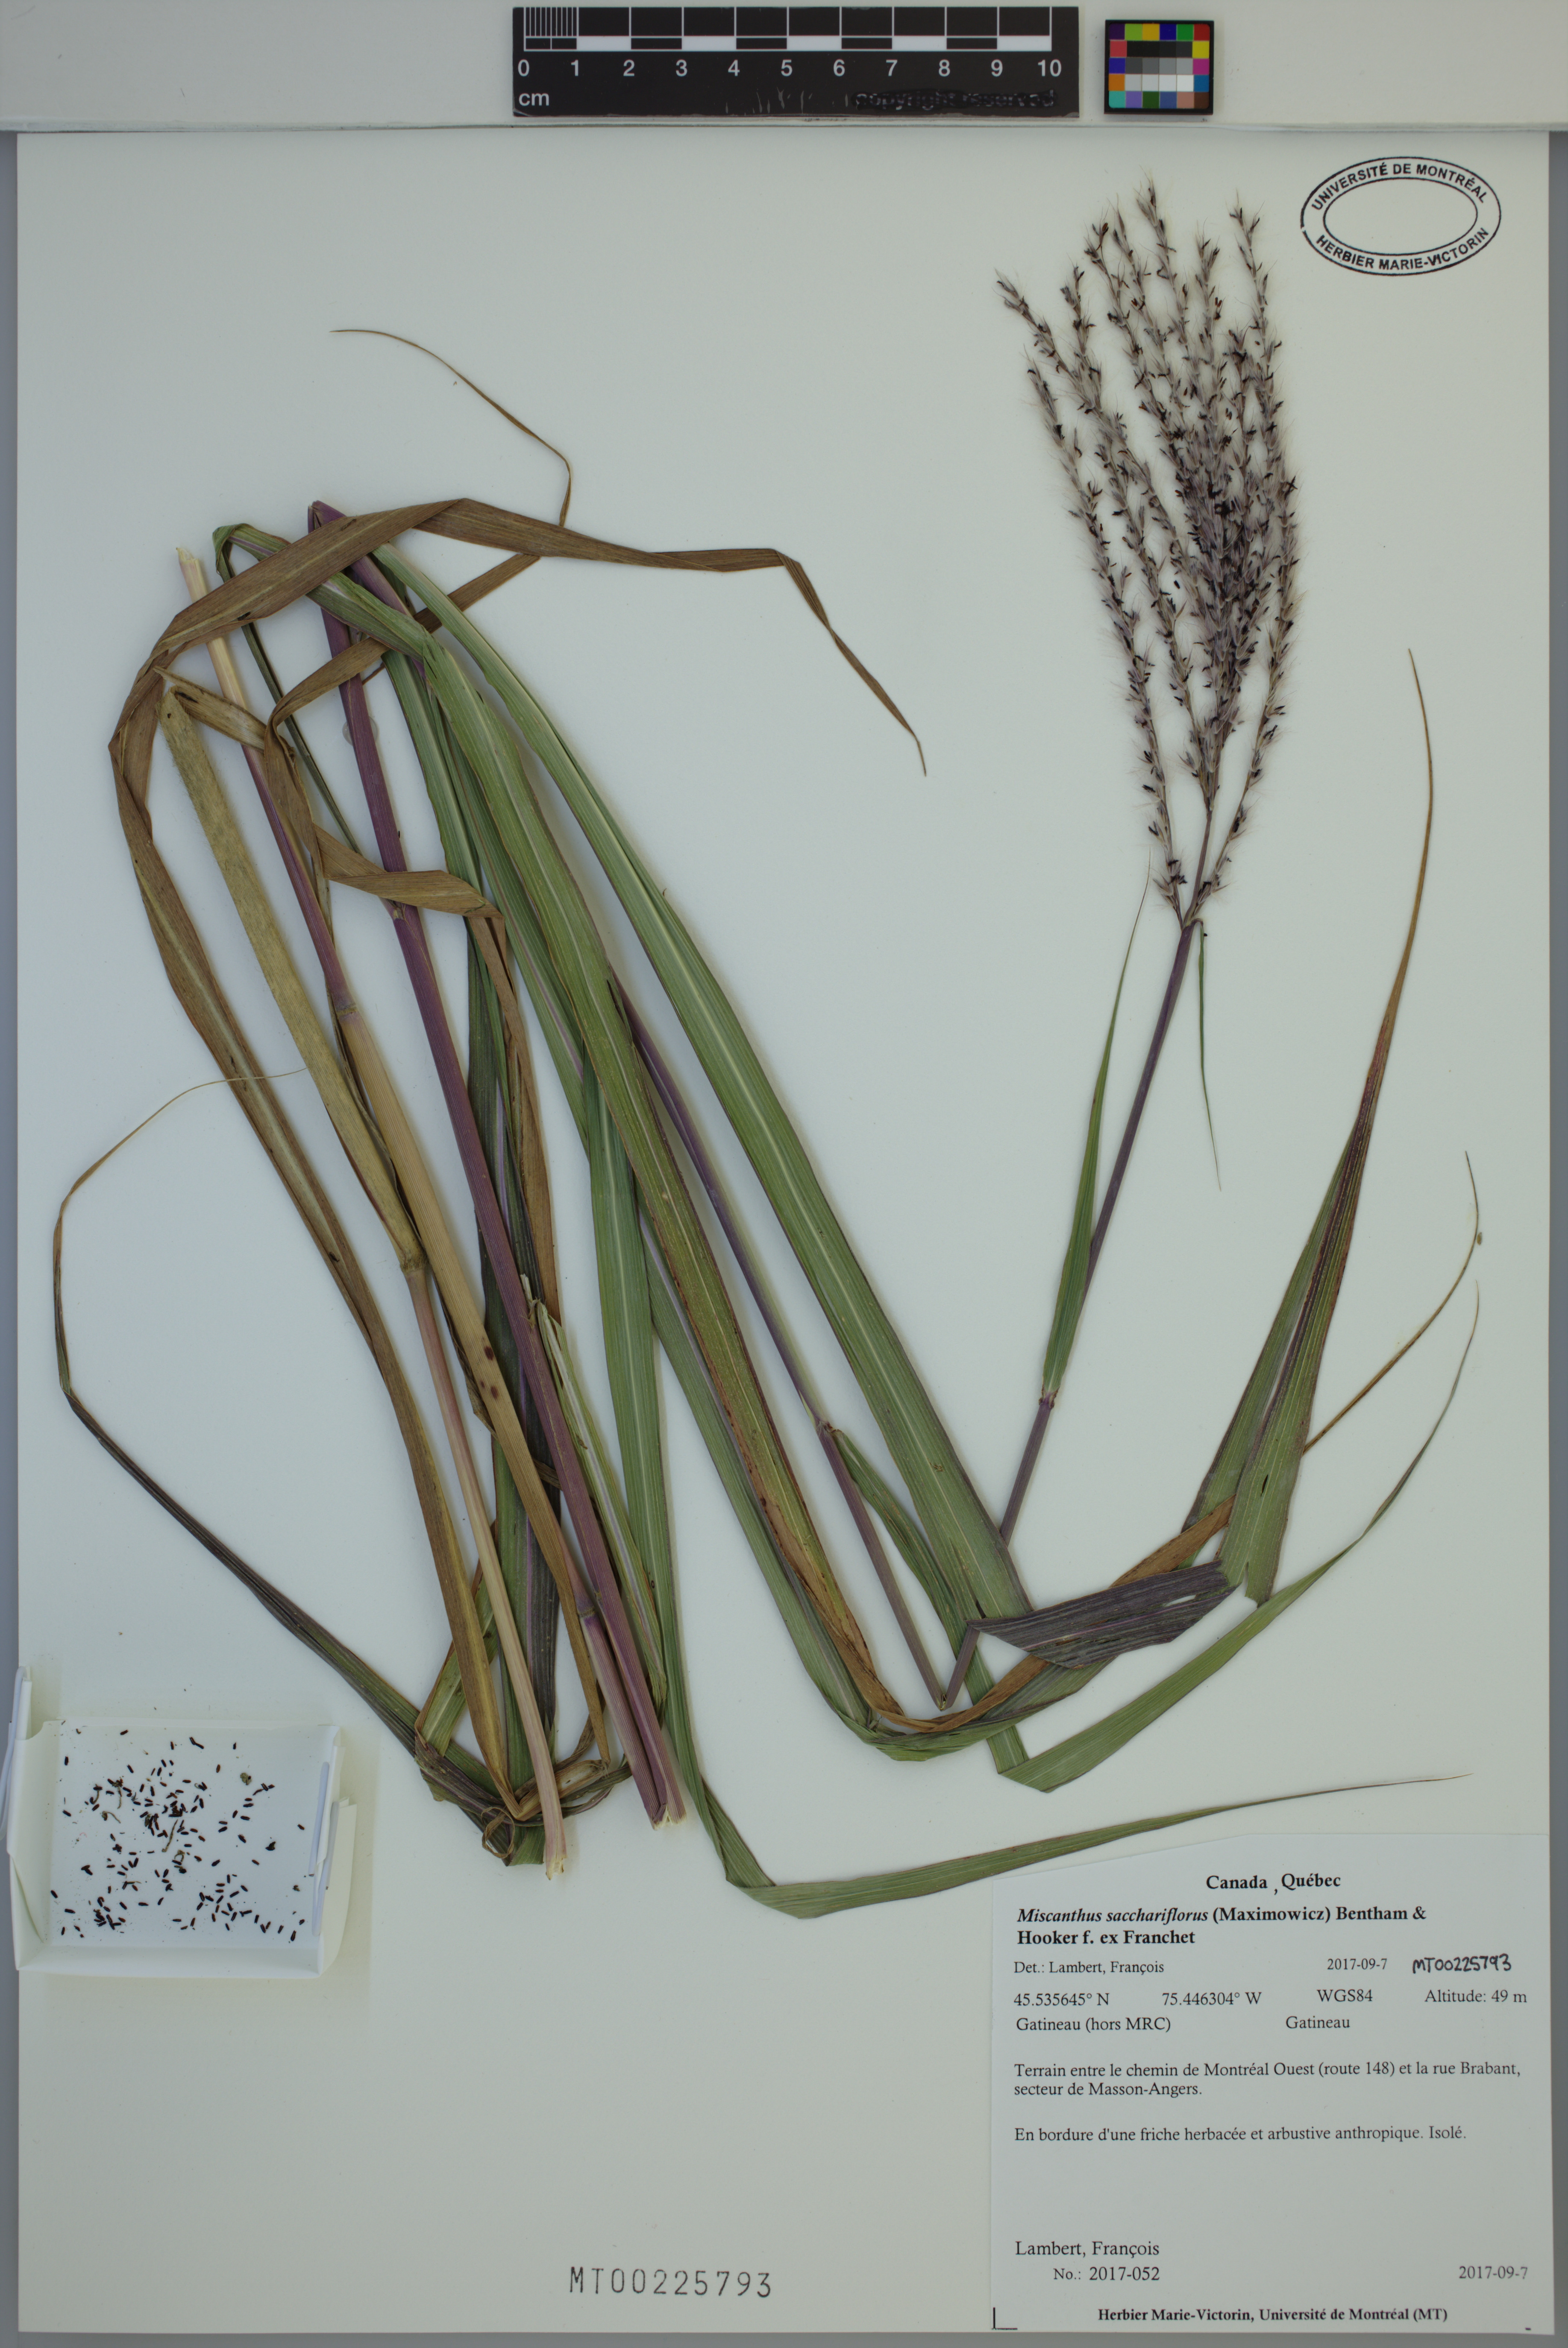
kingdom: Plantae
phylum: Tracheophyta
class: Liliopsida
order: Poales
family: Poaceae
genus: Miscanthus
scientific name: Miscanthus sacchariflorus
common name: Amur silver grass
